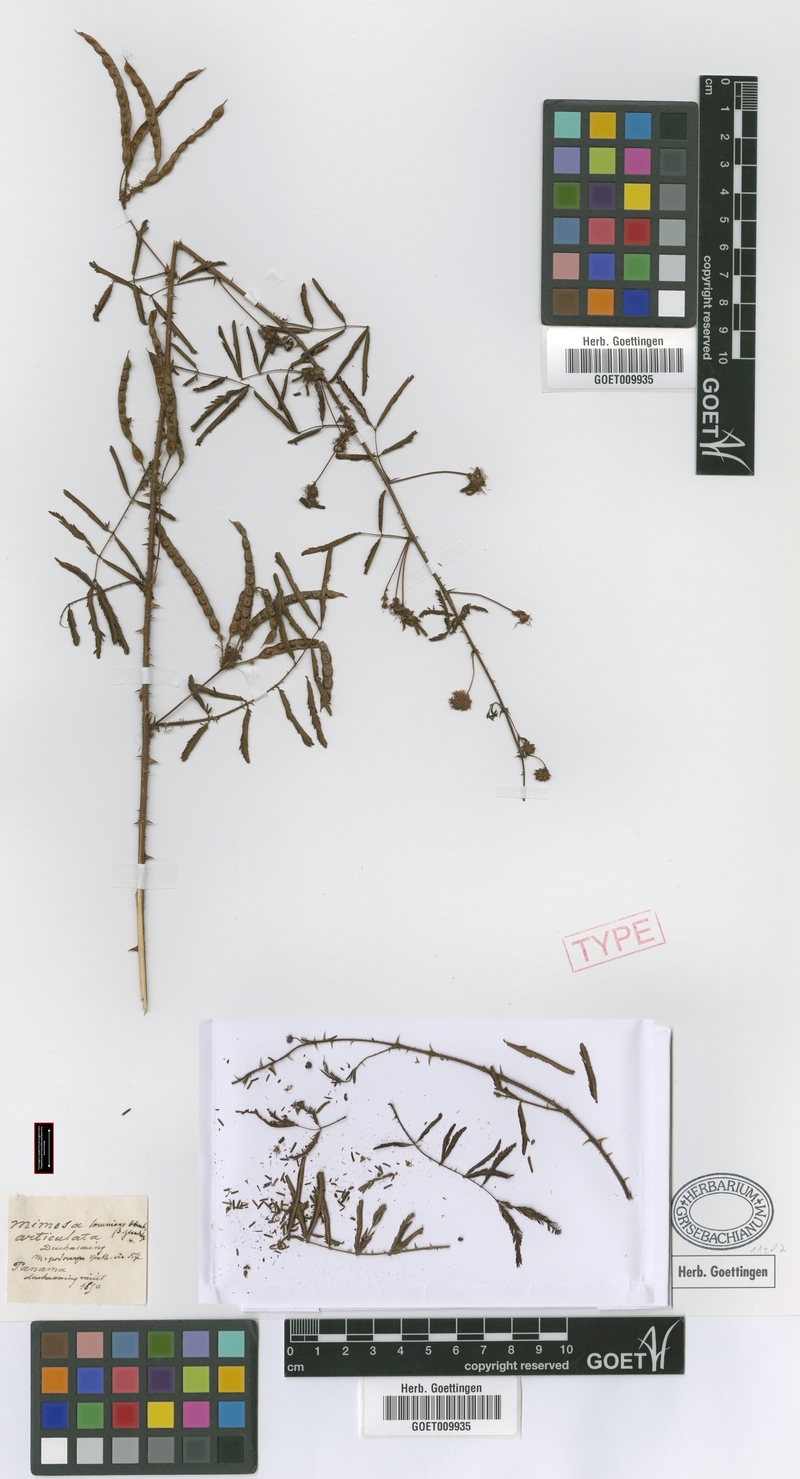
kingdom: Plantae
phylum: Tracheophyta
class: Magnoliopsida
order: Fabales
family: Fabaceae
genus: Mimosa
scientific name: Mimosa somnians
